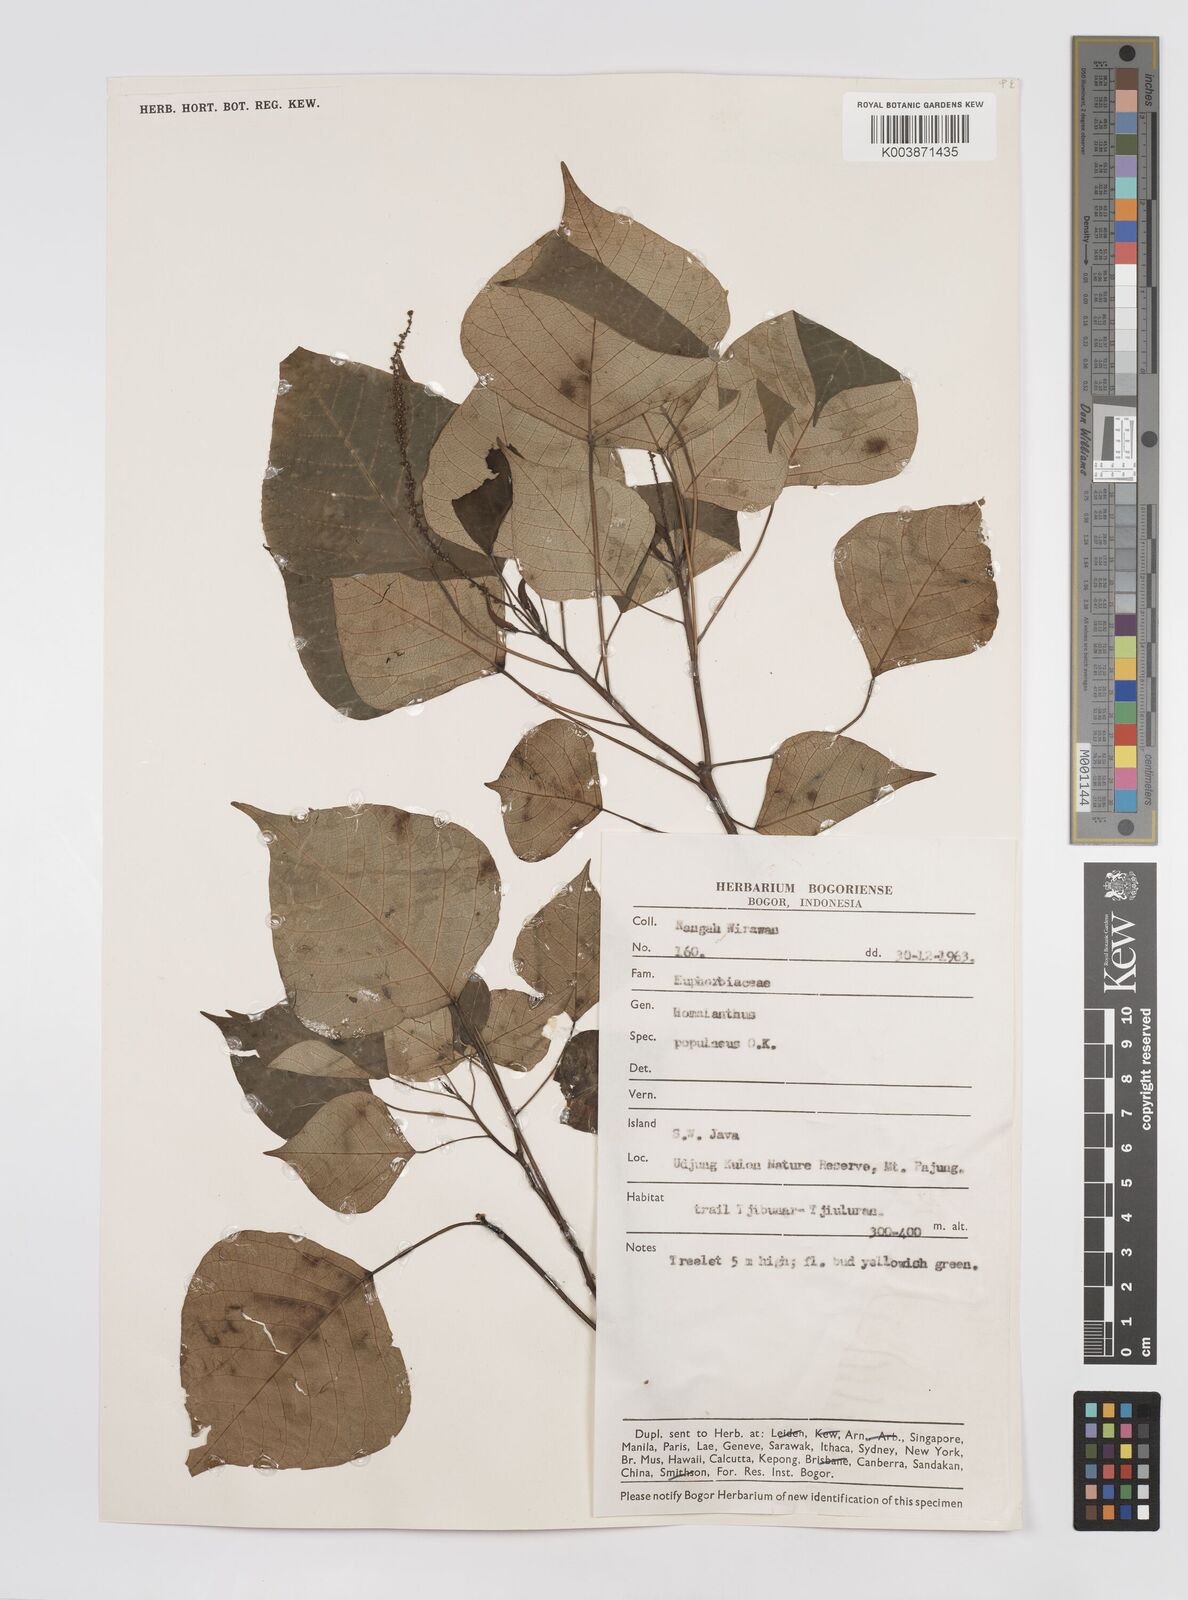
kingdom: Plantae
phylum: Tracheophyta
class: Magnoliopsida
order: Malpighiales
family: Euphorbiaceae
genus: Homalanthus
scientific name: Homalanthus populneus
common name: Spurge
